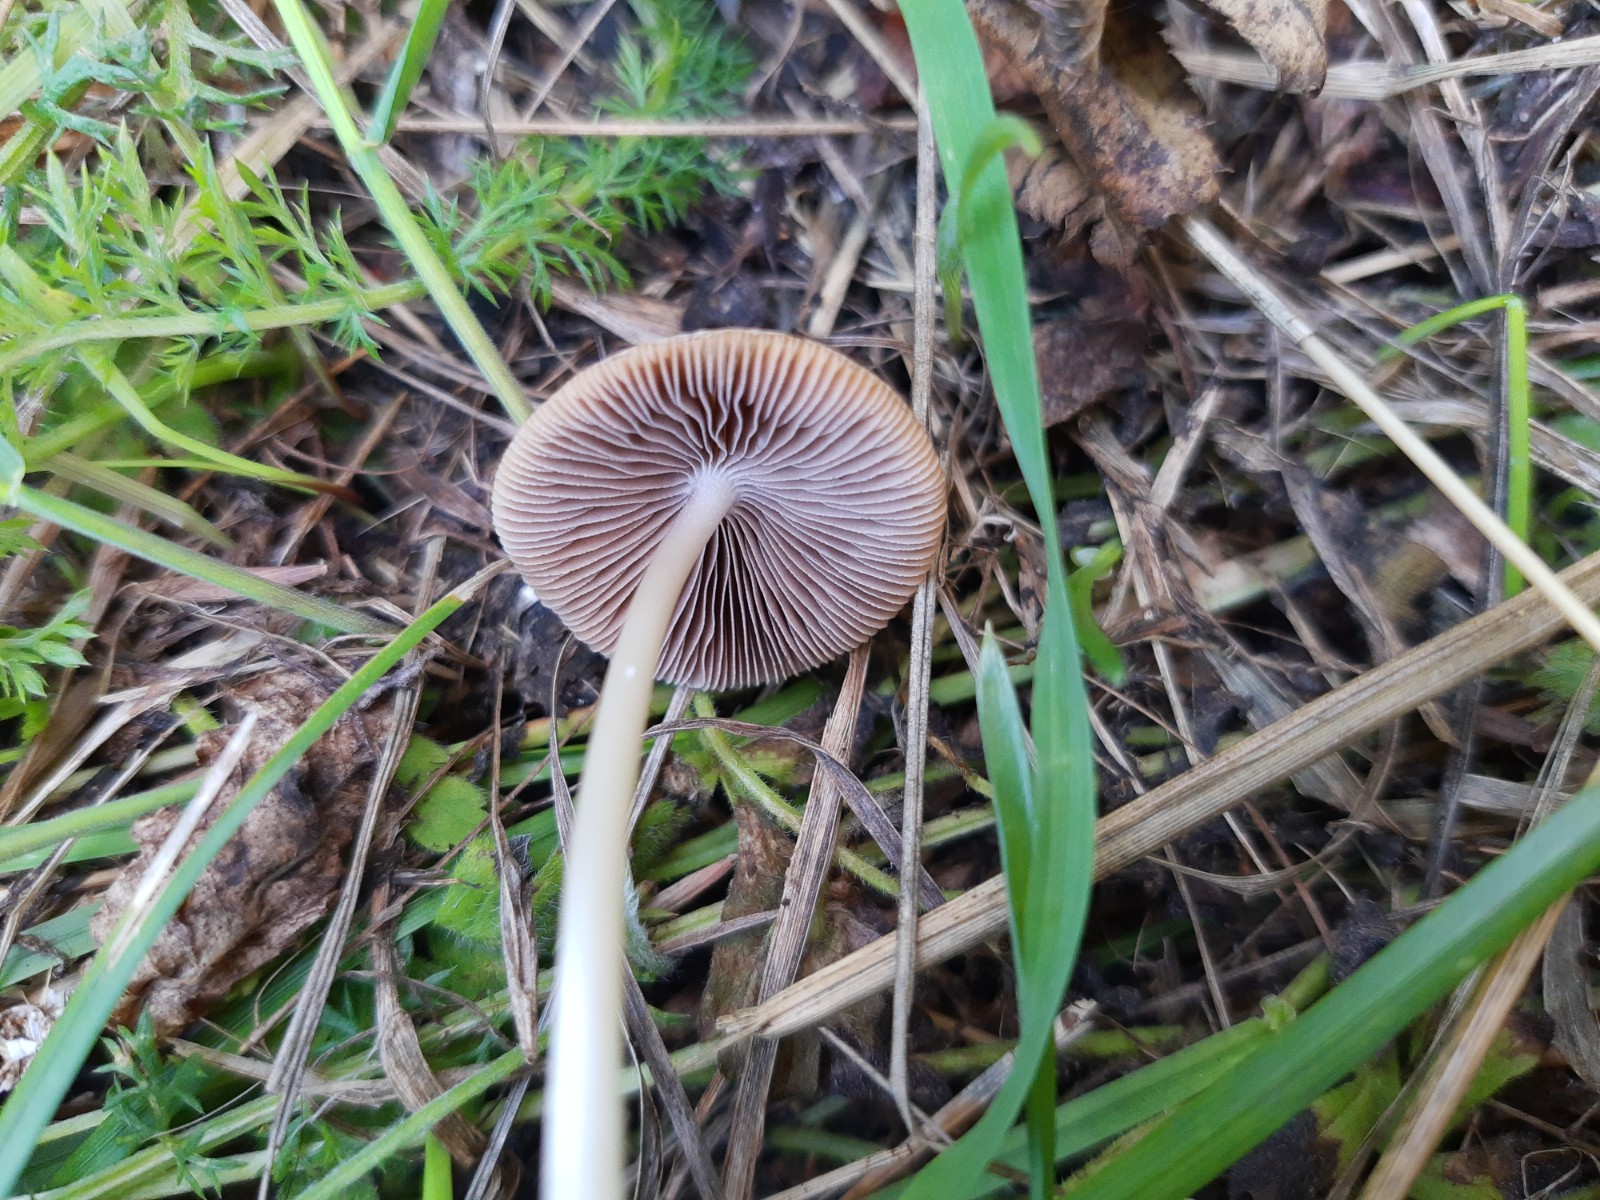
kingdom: Fungi
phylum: Basidiomycota
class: Agaricomycetes
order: Agaricales
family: Psathyrellaceae
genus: Coprinopsis
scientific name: Coprinopsis marcescibilis
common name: ruderat-blækhat
